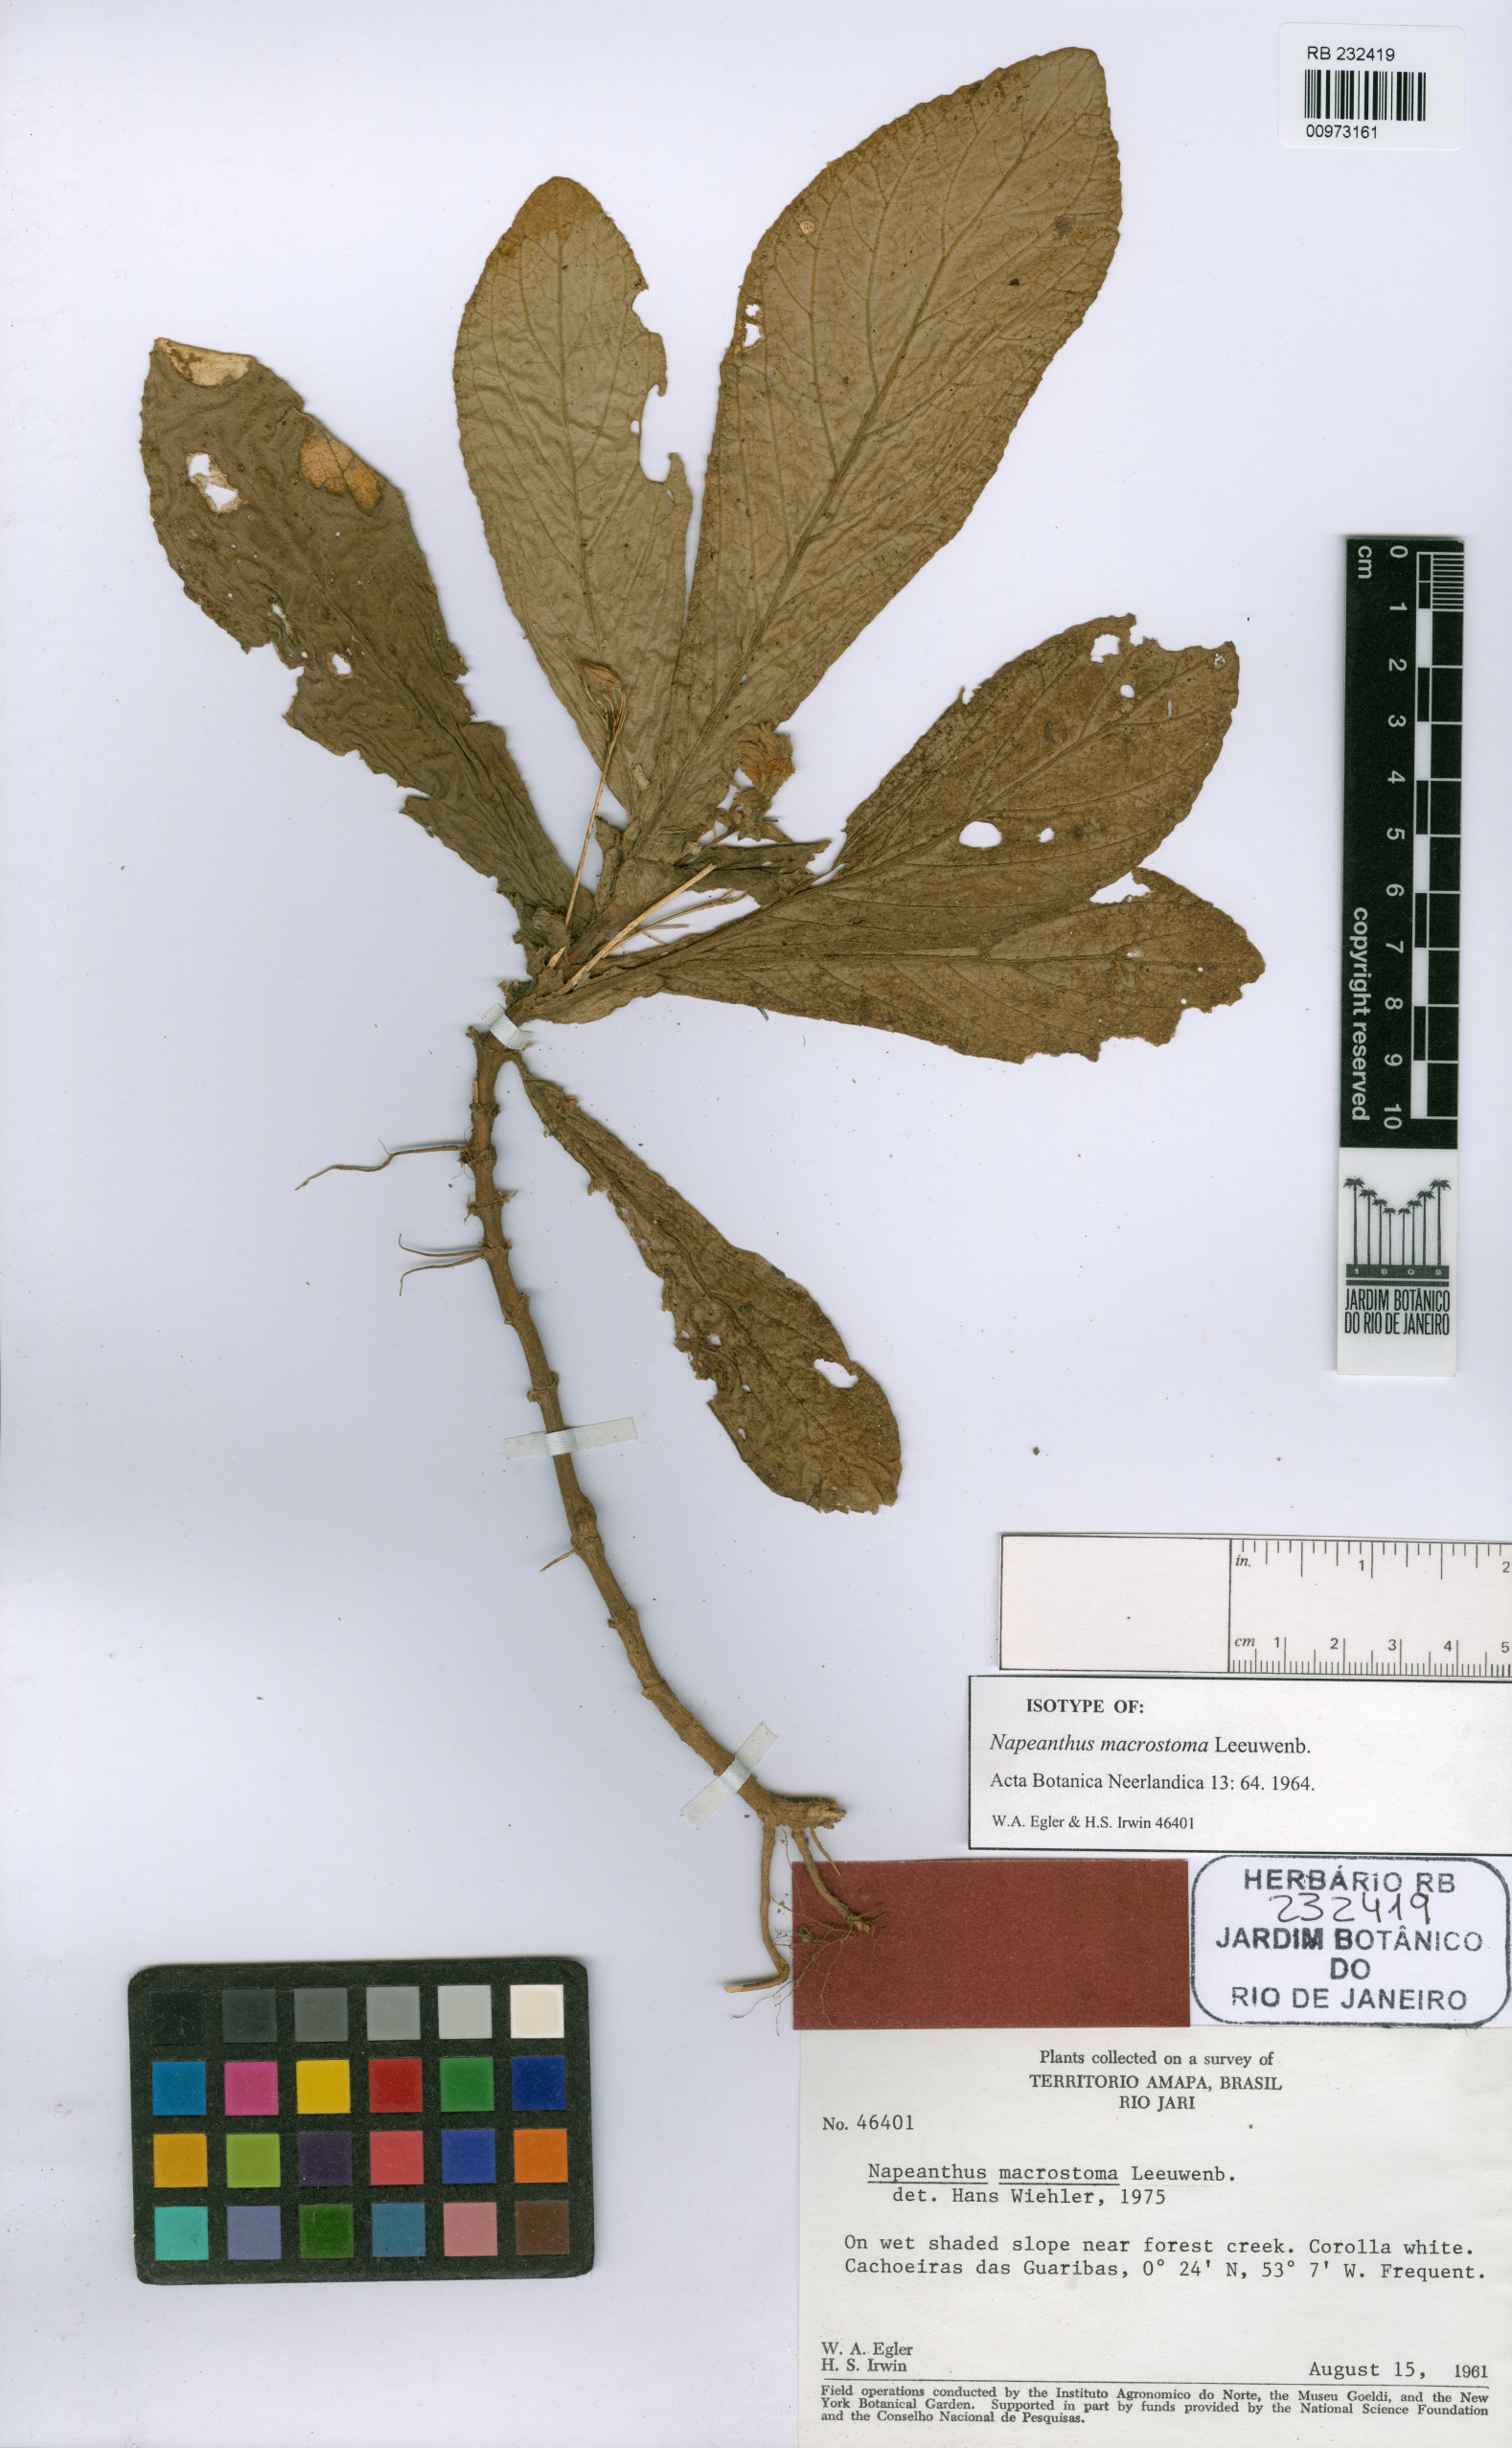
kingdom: Plantae
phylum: Tracheophyta
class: Magnoliopsida
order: Lamiales
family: Gesneriaceae
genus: Napeanthus
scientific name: Napeanthus macrostoma
